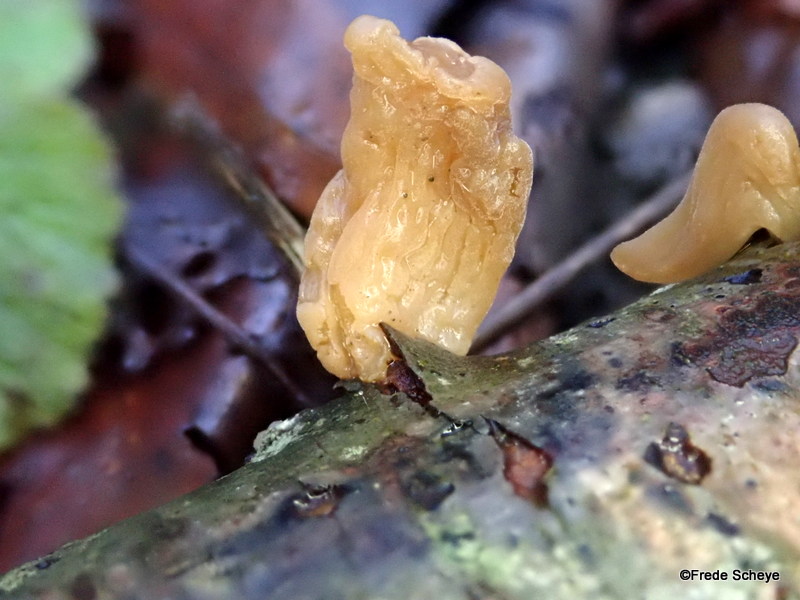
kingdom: Fungi
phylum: Basidiomycota
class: Agaricomycetes
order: Agaricales
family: Typhulaceae
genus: Typhula
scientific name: Typhula contorta
